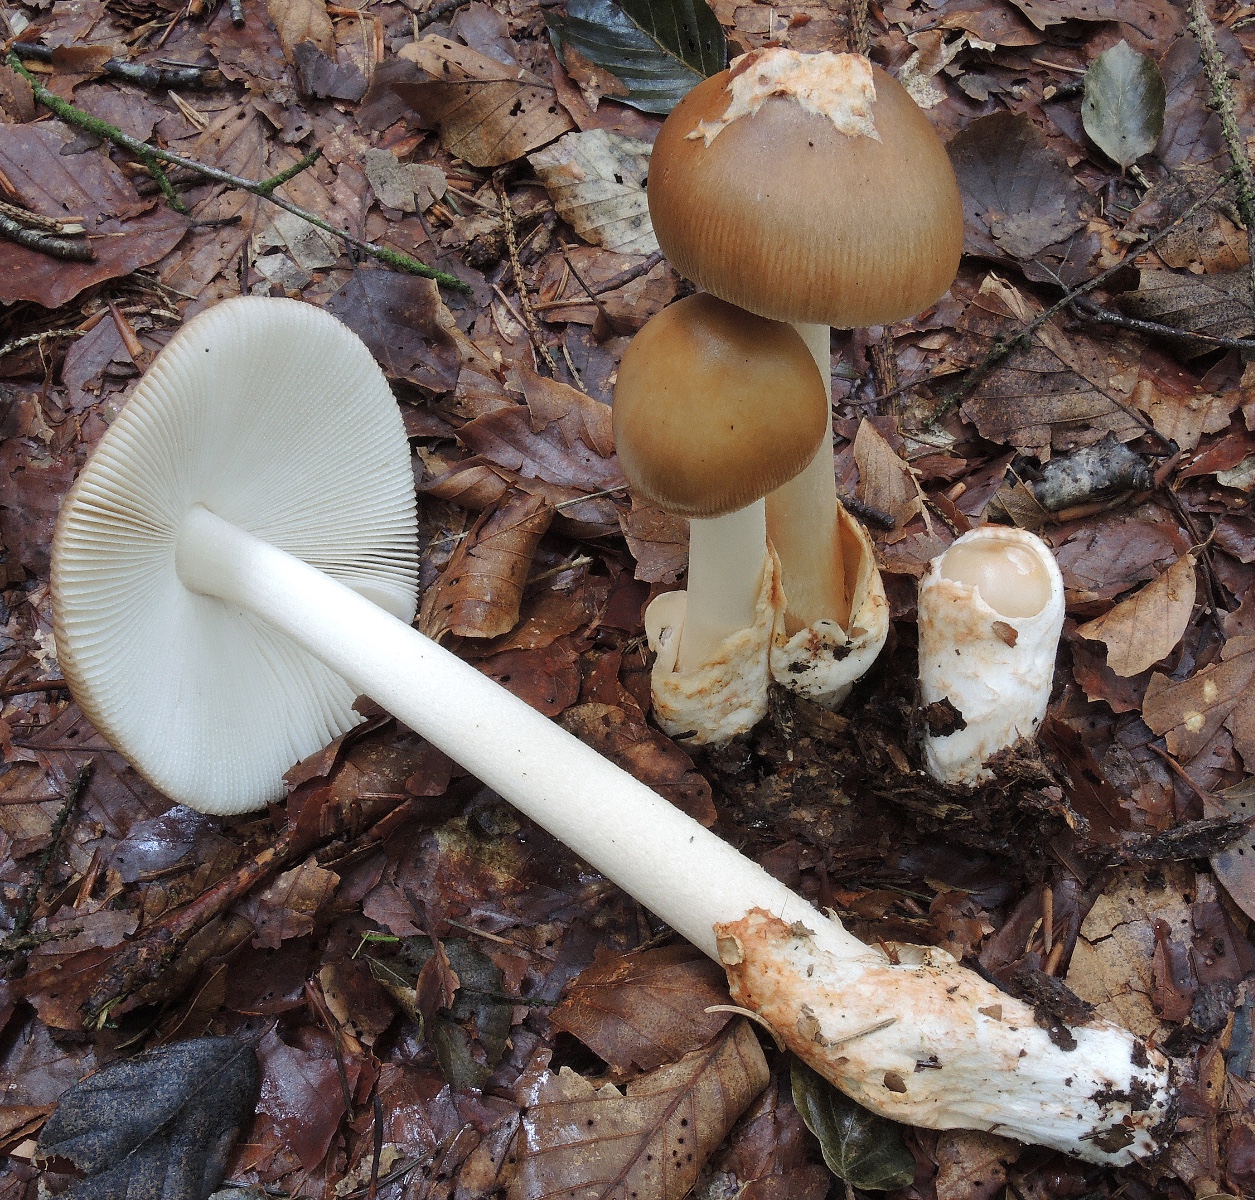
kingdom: Fungi
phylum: Basidiomycota
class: Agaricomycetes
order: Agaricales
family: Amanitaceae
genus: Amanita
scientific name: Amanita fulva
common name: brun kam-fluesvamp
